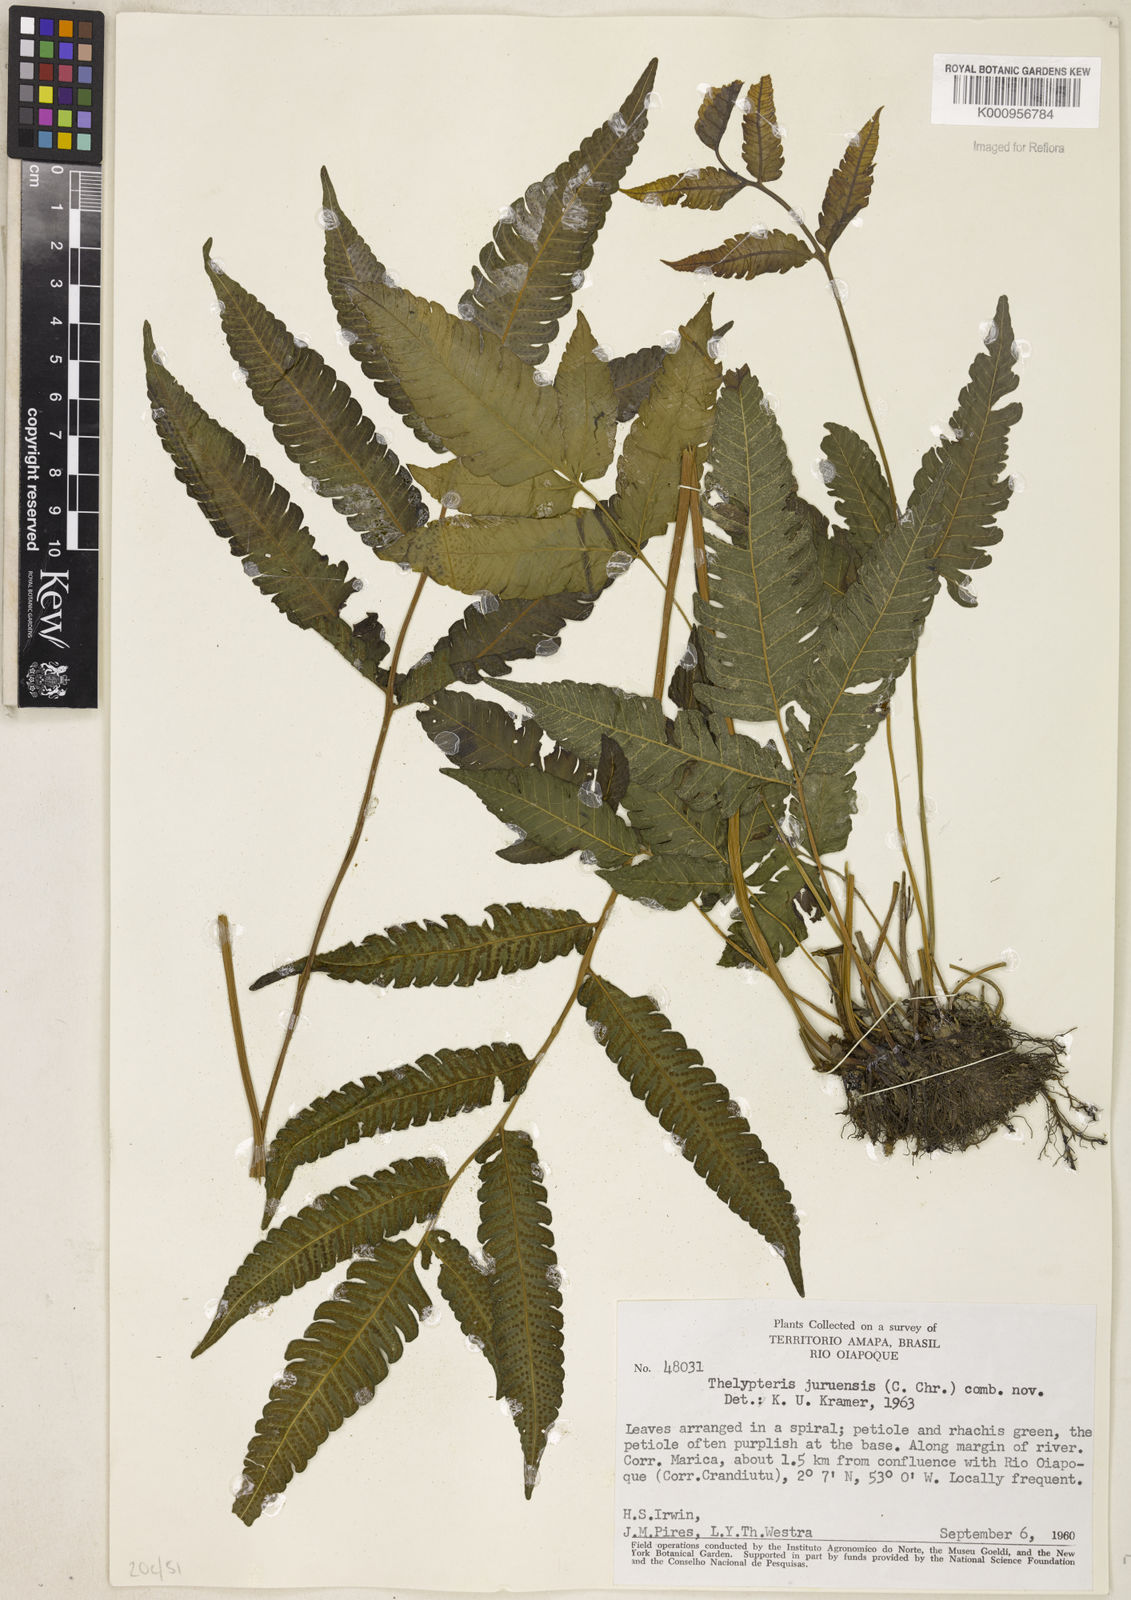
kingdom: Plantae
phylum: Tracheophyta
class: Polypodiopsida
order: Polypodiales
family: Thelypteridaceae
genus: Goniopteris
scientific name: Goniopteris juruensis
